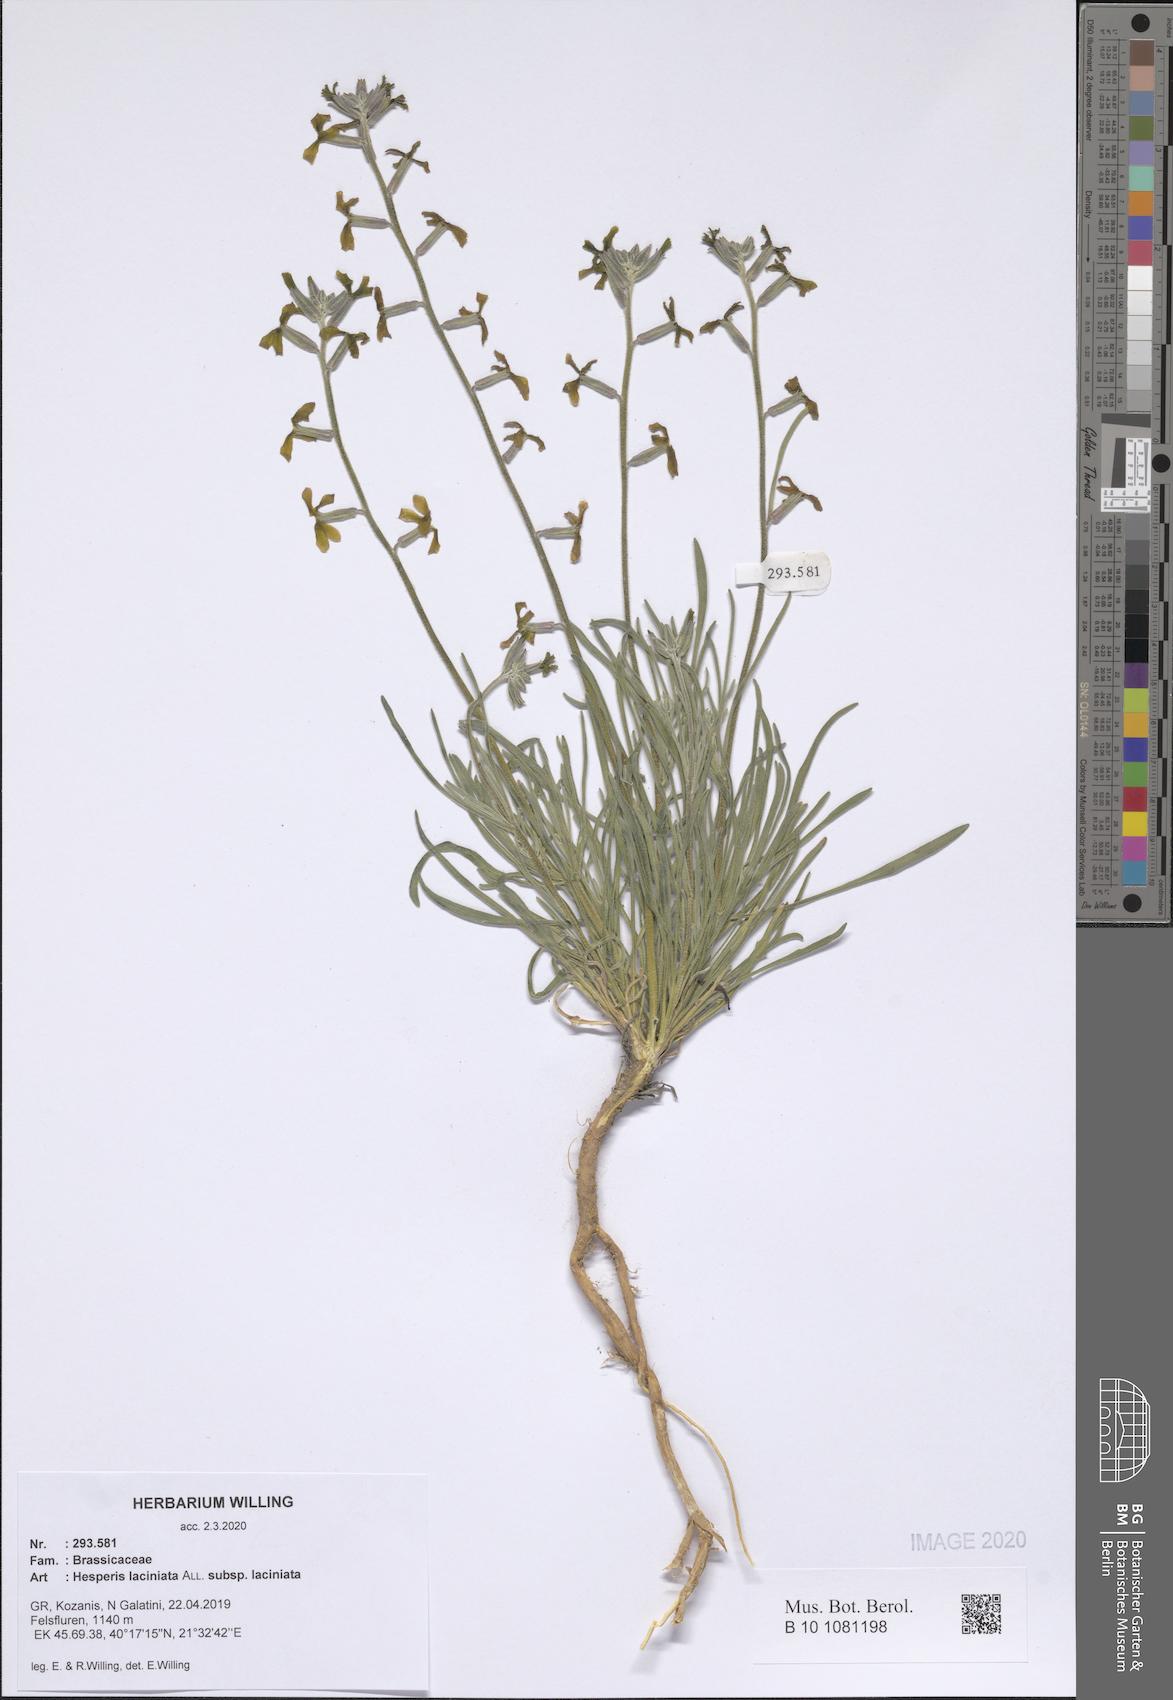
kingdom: Plantae
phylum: Tracheophyta
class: Magnoliopsida
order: Brassicales
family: Brassicaceae
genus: Hesperis
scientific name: Hesperis laciniata
